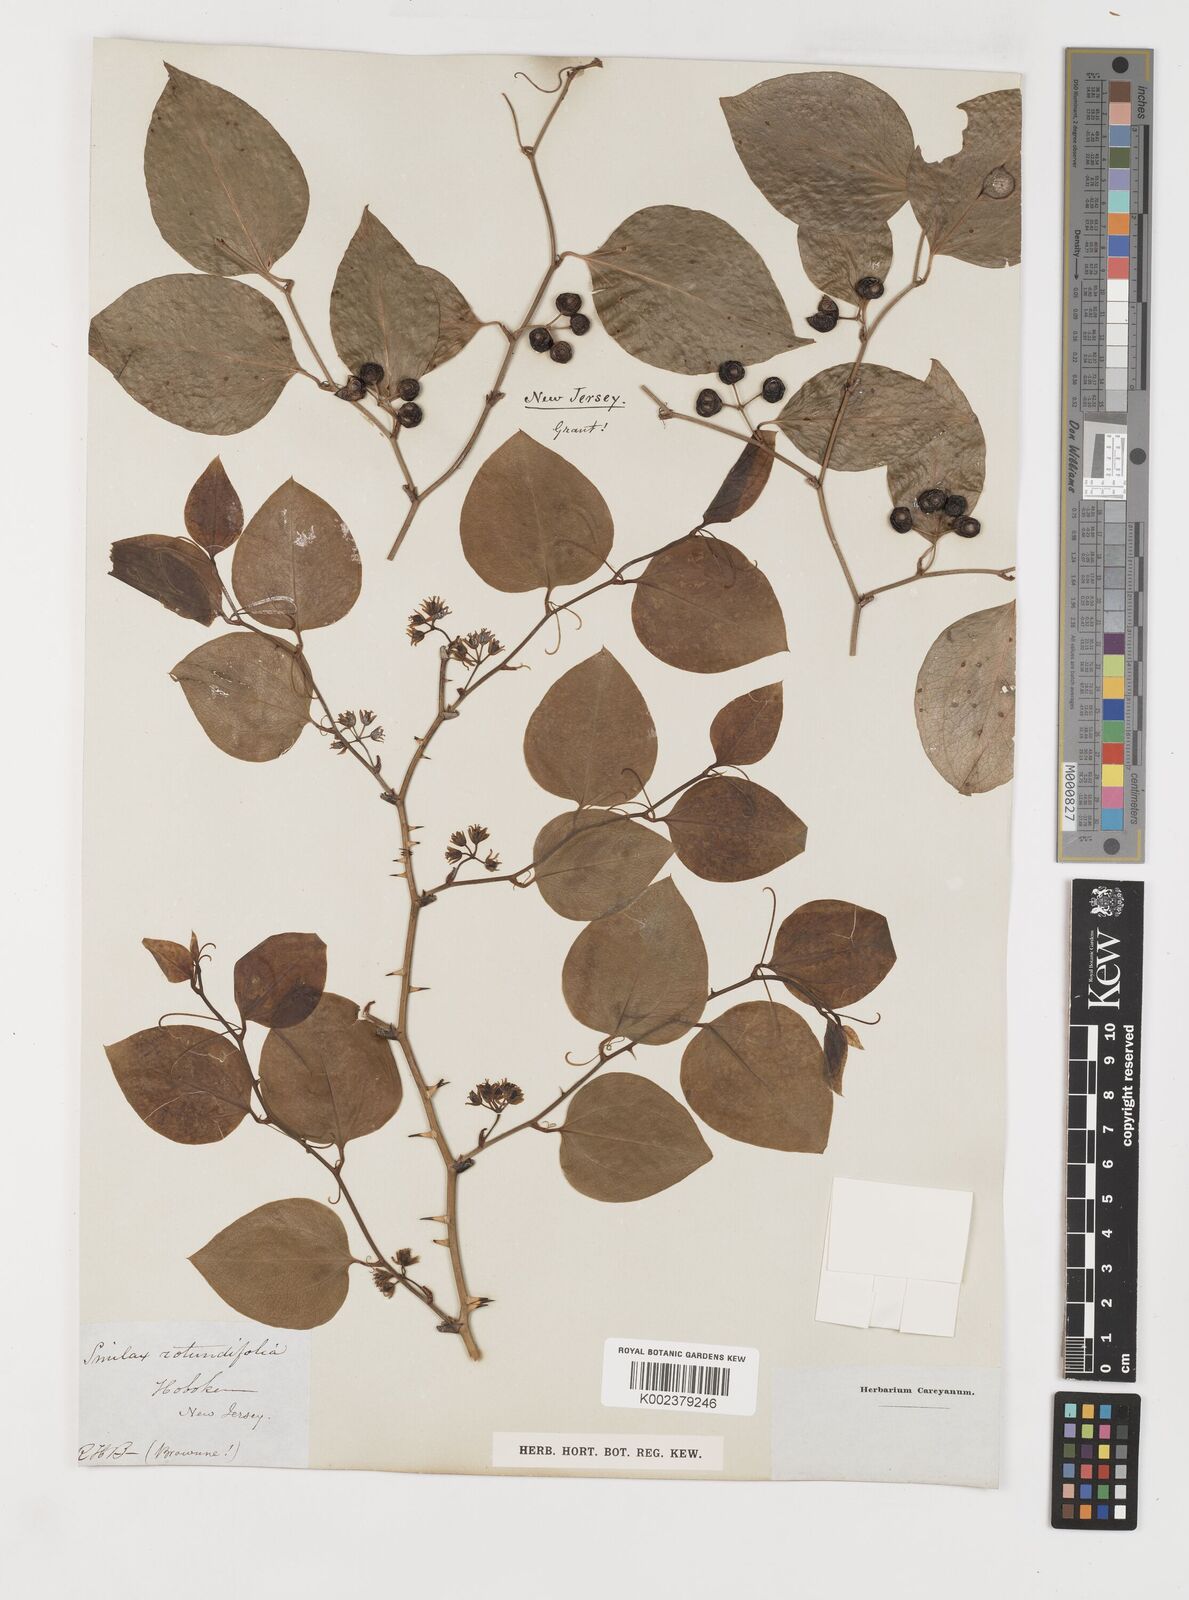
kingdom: Plantae
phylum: Tracheophyta
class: Liliopsida
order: Liliales
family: Smilacaceae
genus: Smilax
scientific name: Smilax rotundifolia
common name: Bullbriar
